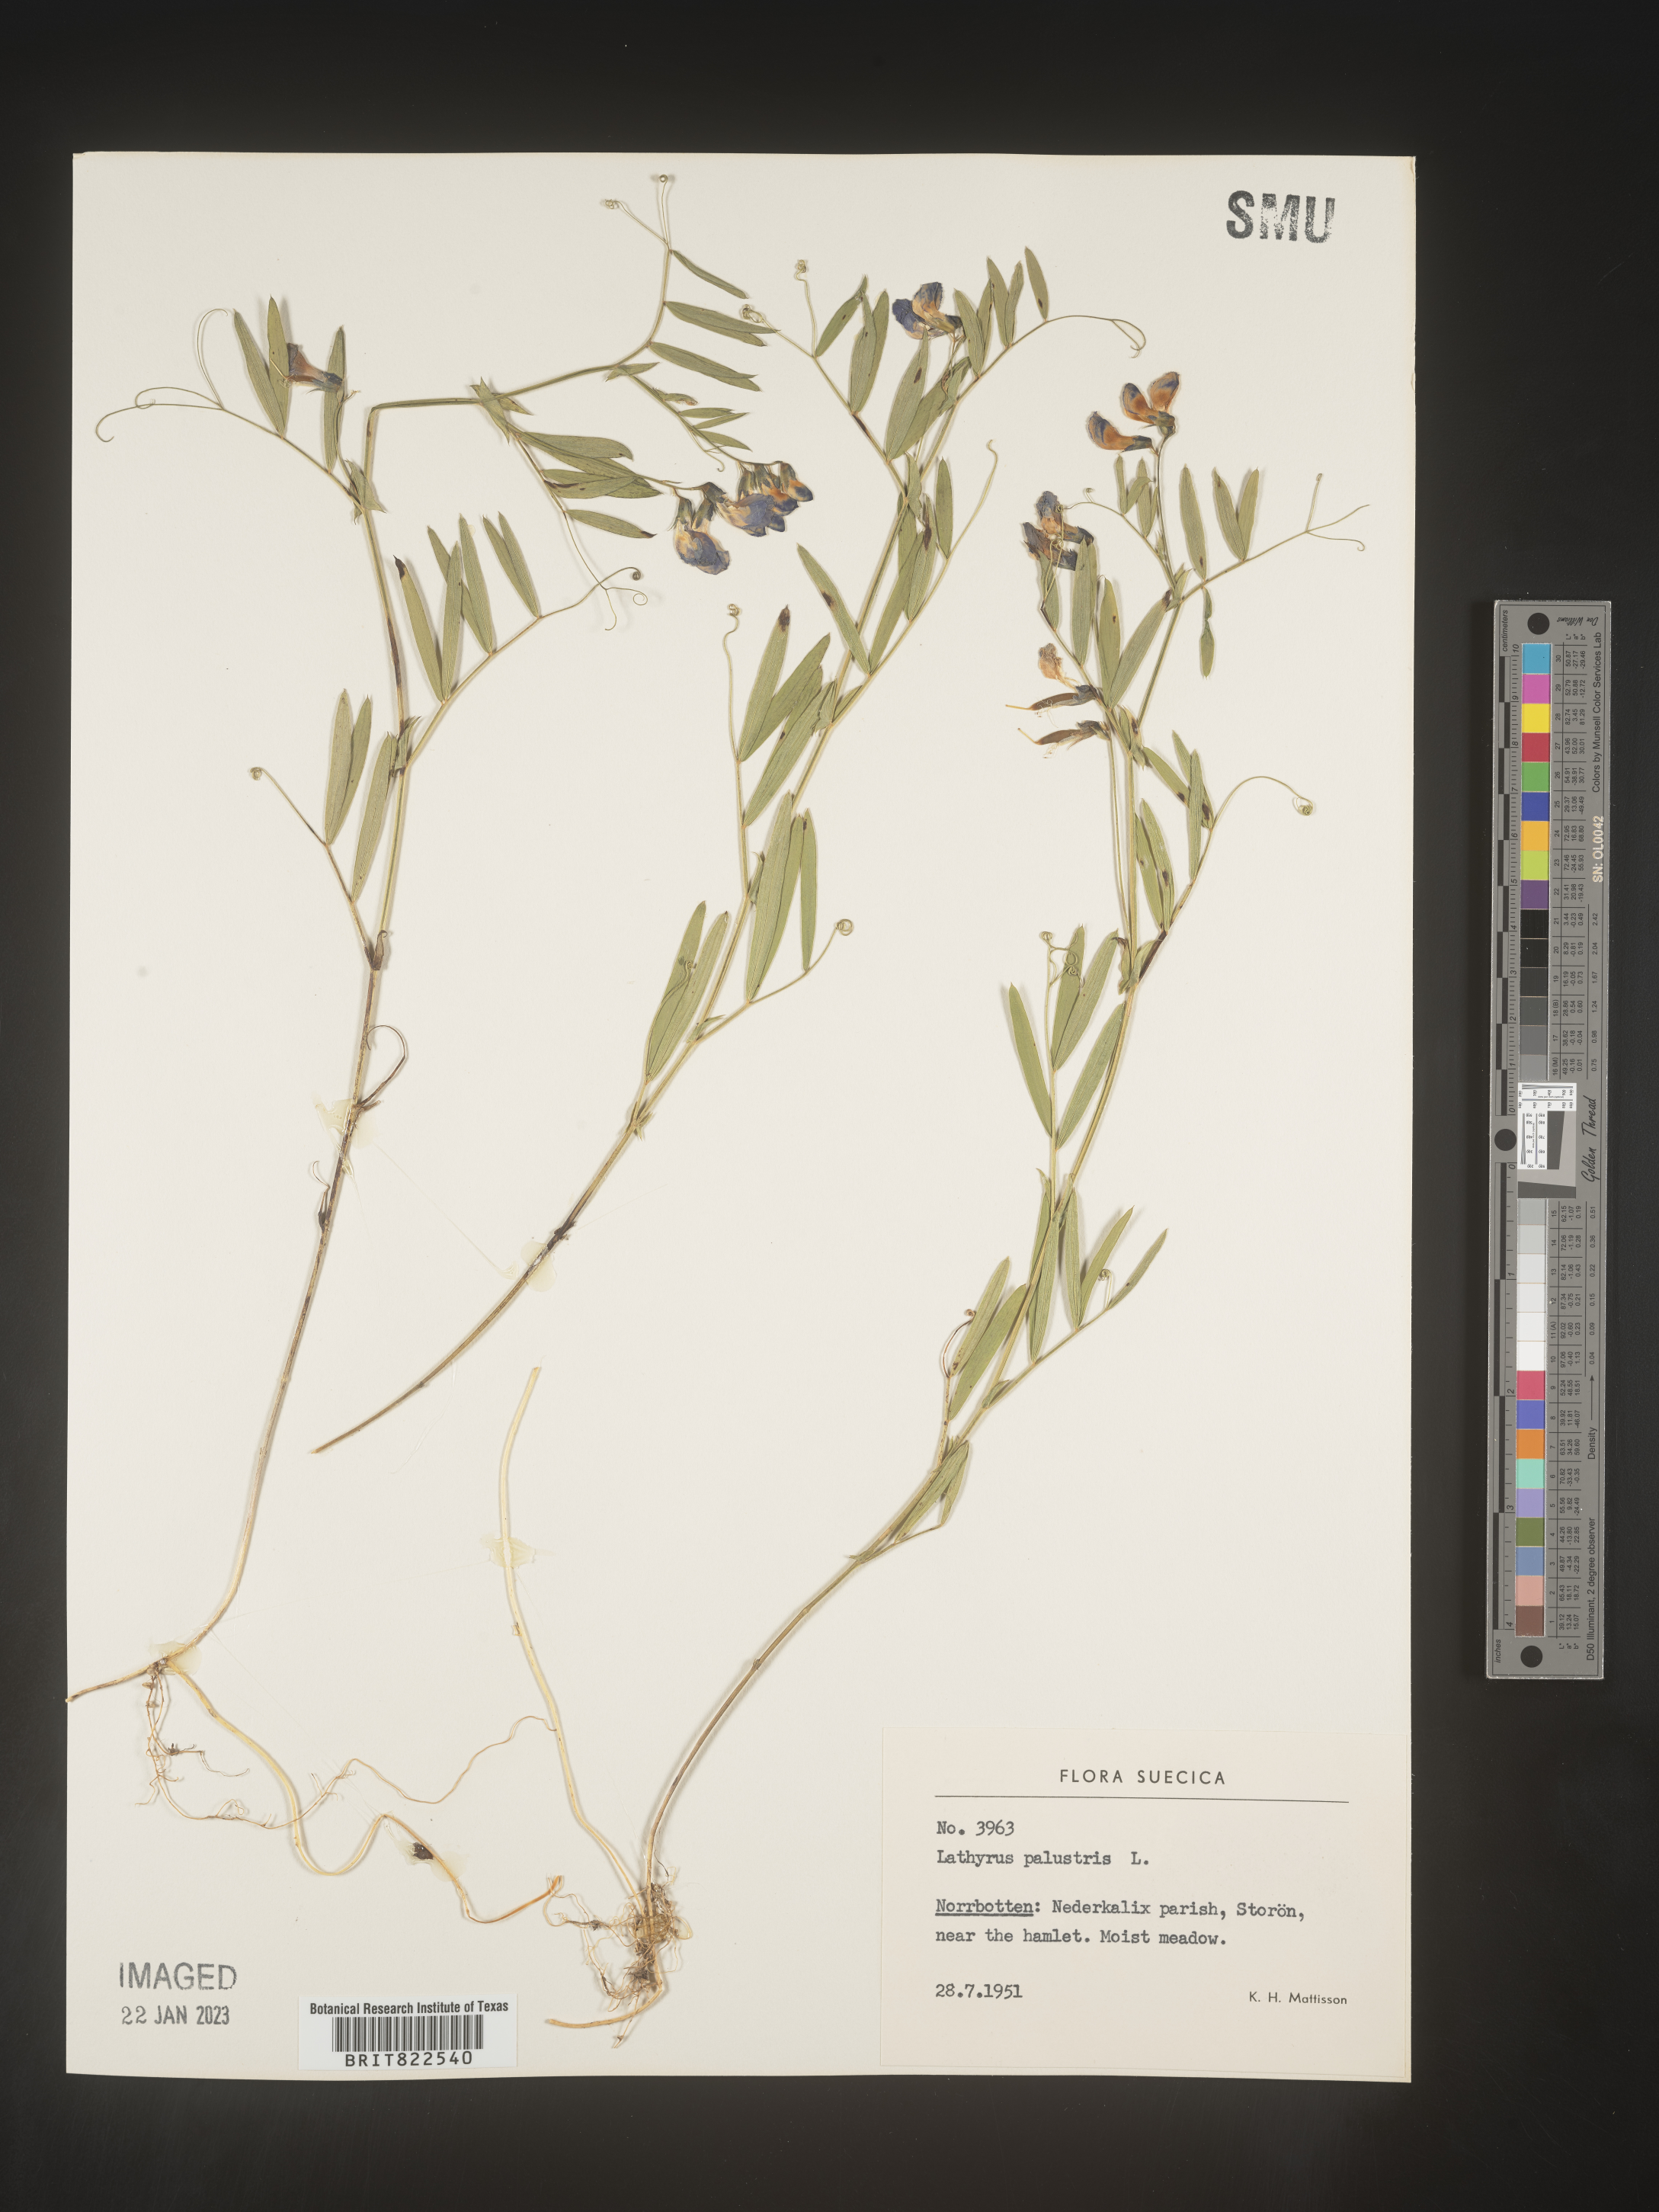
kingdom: Plantae
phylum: Tracheophyta
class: Magnoliopsida
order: Fabales
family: Fabaceae
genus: Lathyrus
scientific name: Lathyrus
